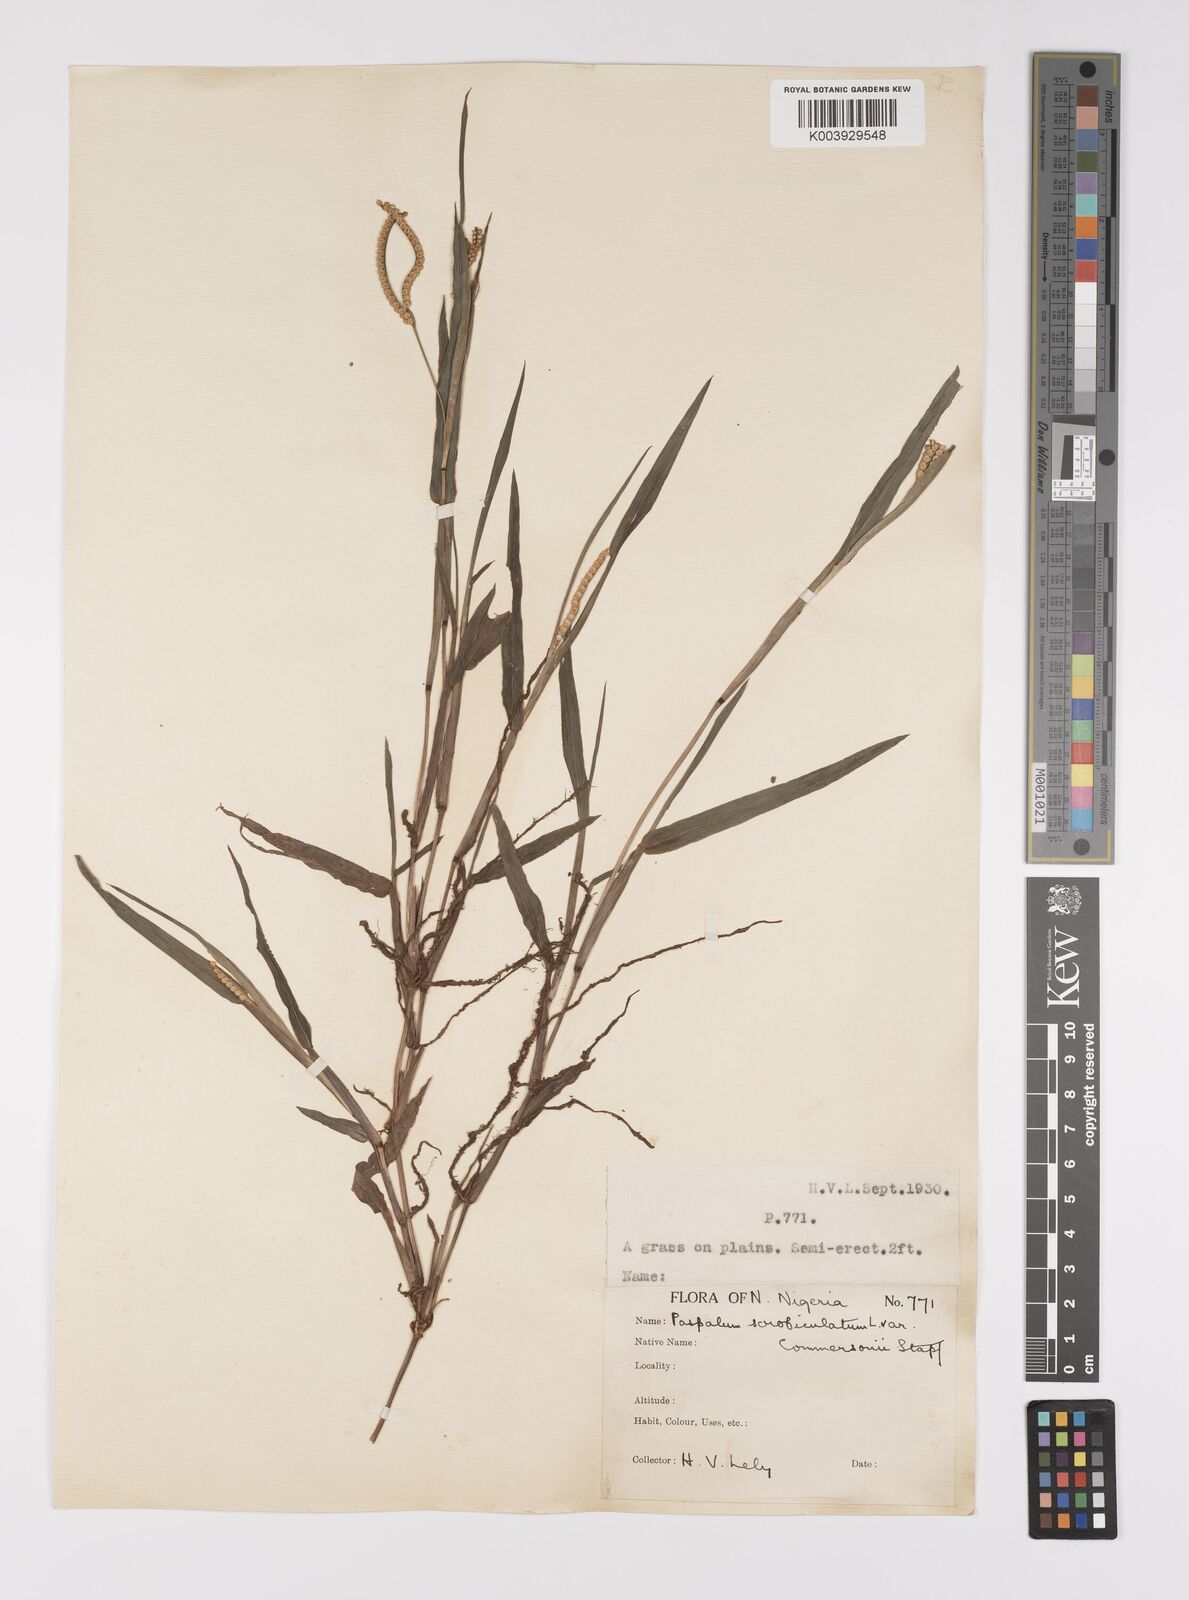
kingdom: Plantae
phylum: Tracheophyta
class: Liliopsida
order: Poales
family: Poaceae
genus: Paspalum
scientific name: Paspalum scrobiculatum
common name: Kodo millet
